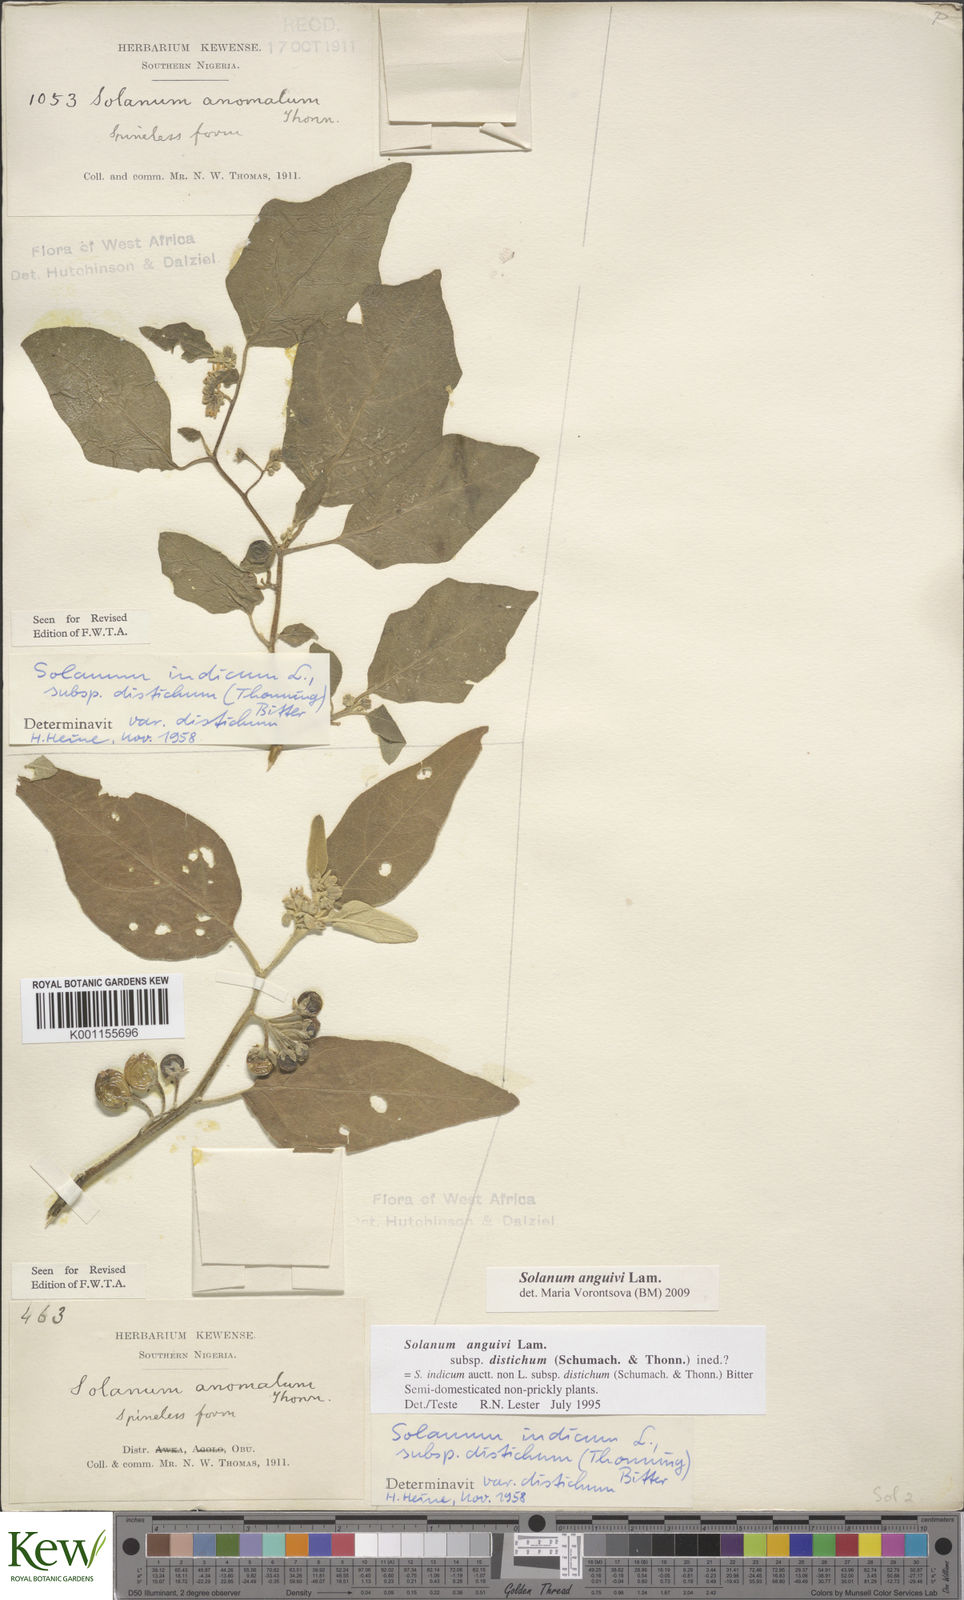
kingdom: Plantae
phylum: Tracheophyta
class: Magnoliopsida
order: Solanales
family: Solanaceae
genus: Solanum
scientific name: Solanum anguivi
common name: Forest bitterberry
